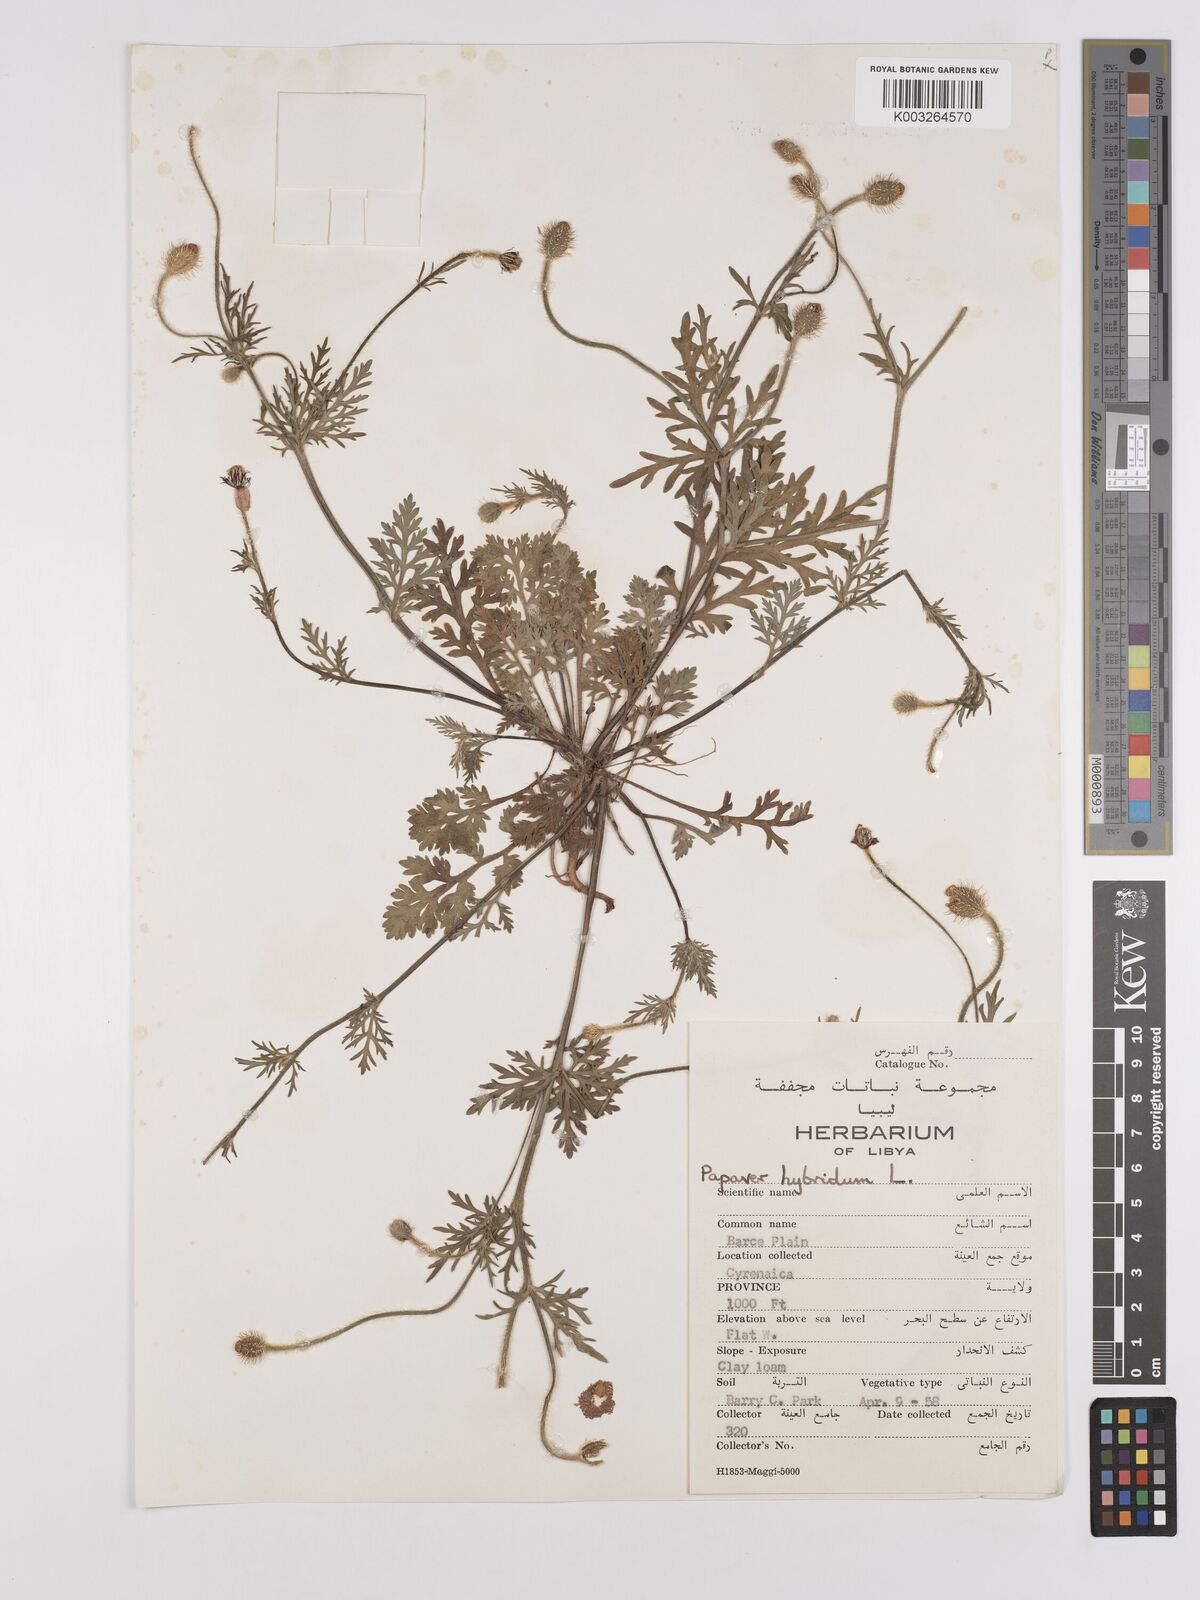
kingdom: Plantae
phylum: Tracheophyta
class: Magnoliopsida
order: Ranunculales
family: Papaveraceae
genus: Papaver
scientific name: Papaver
